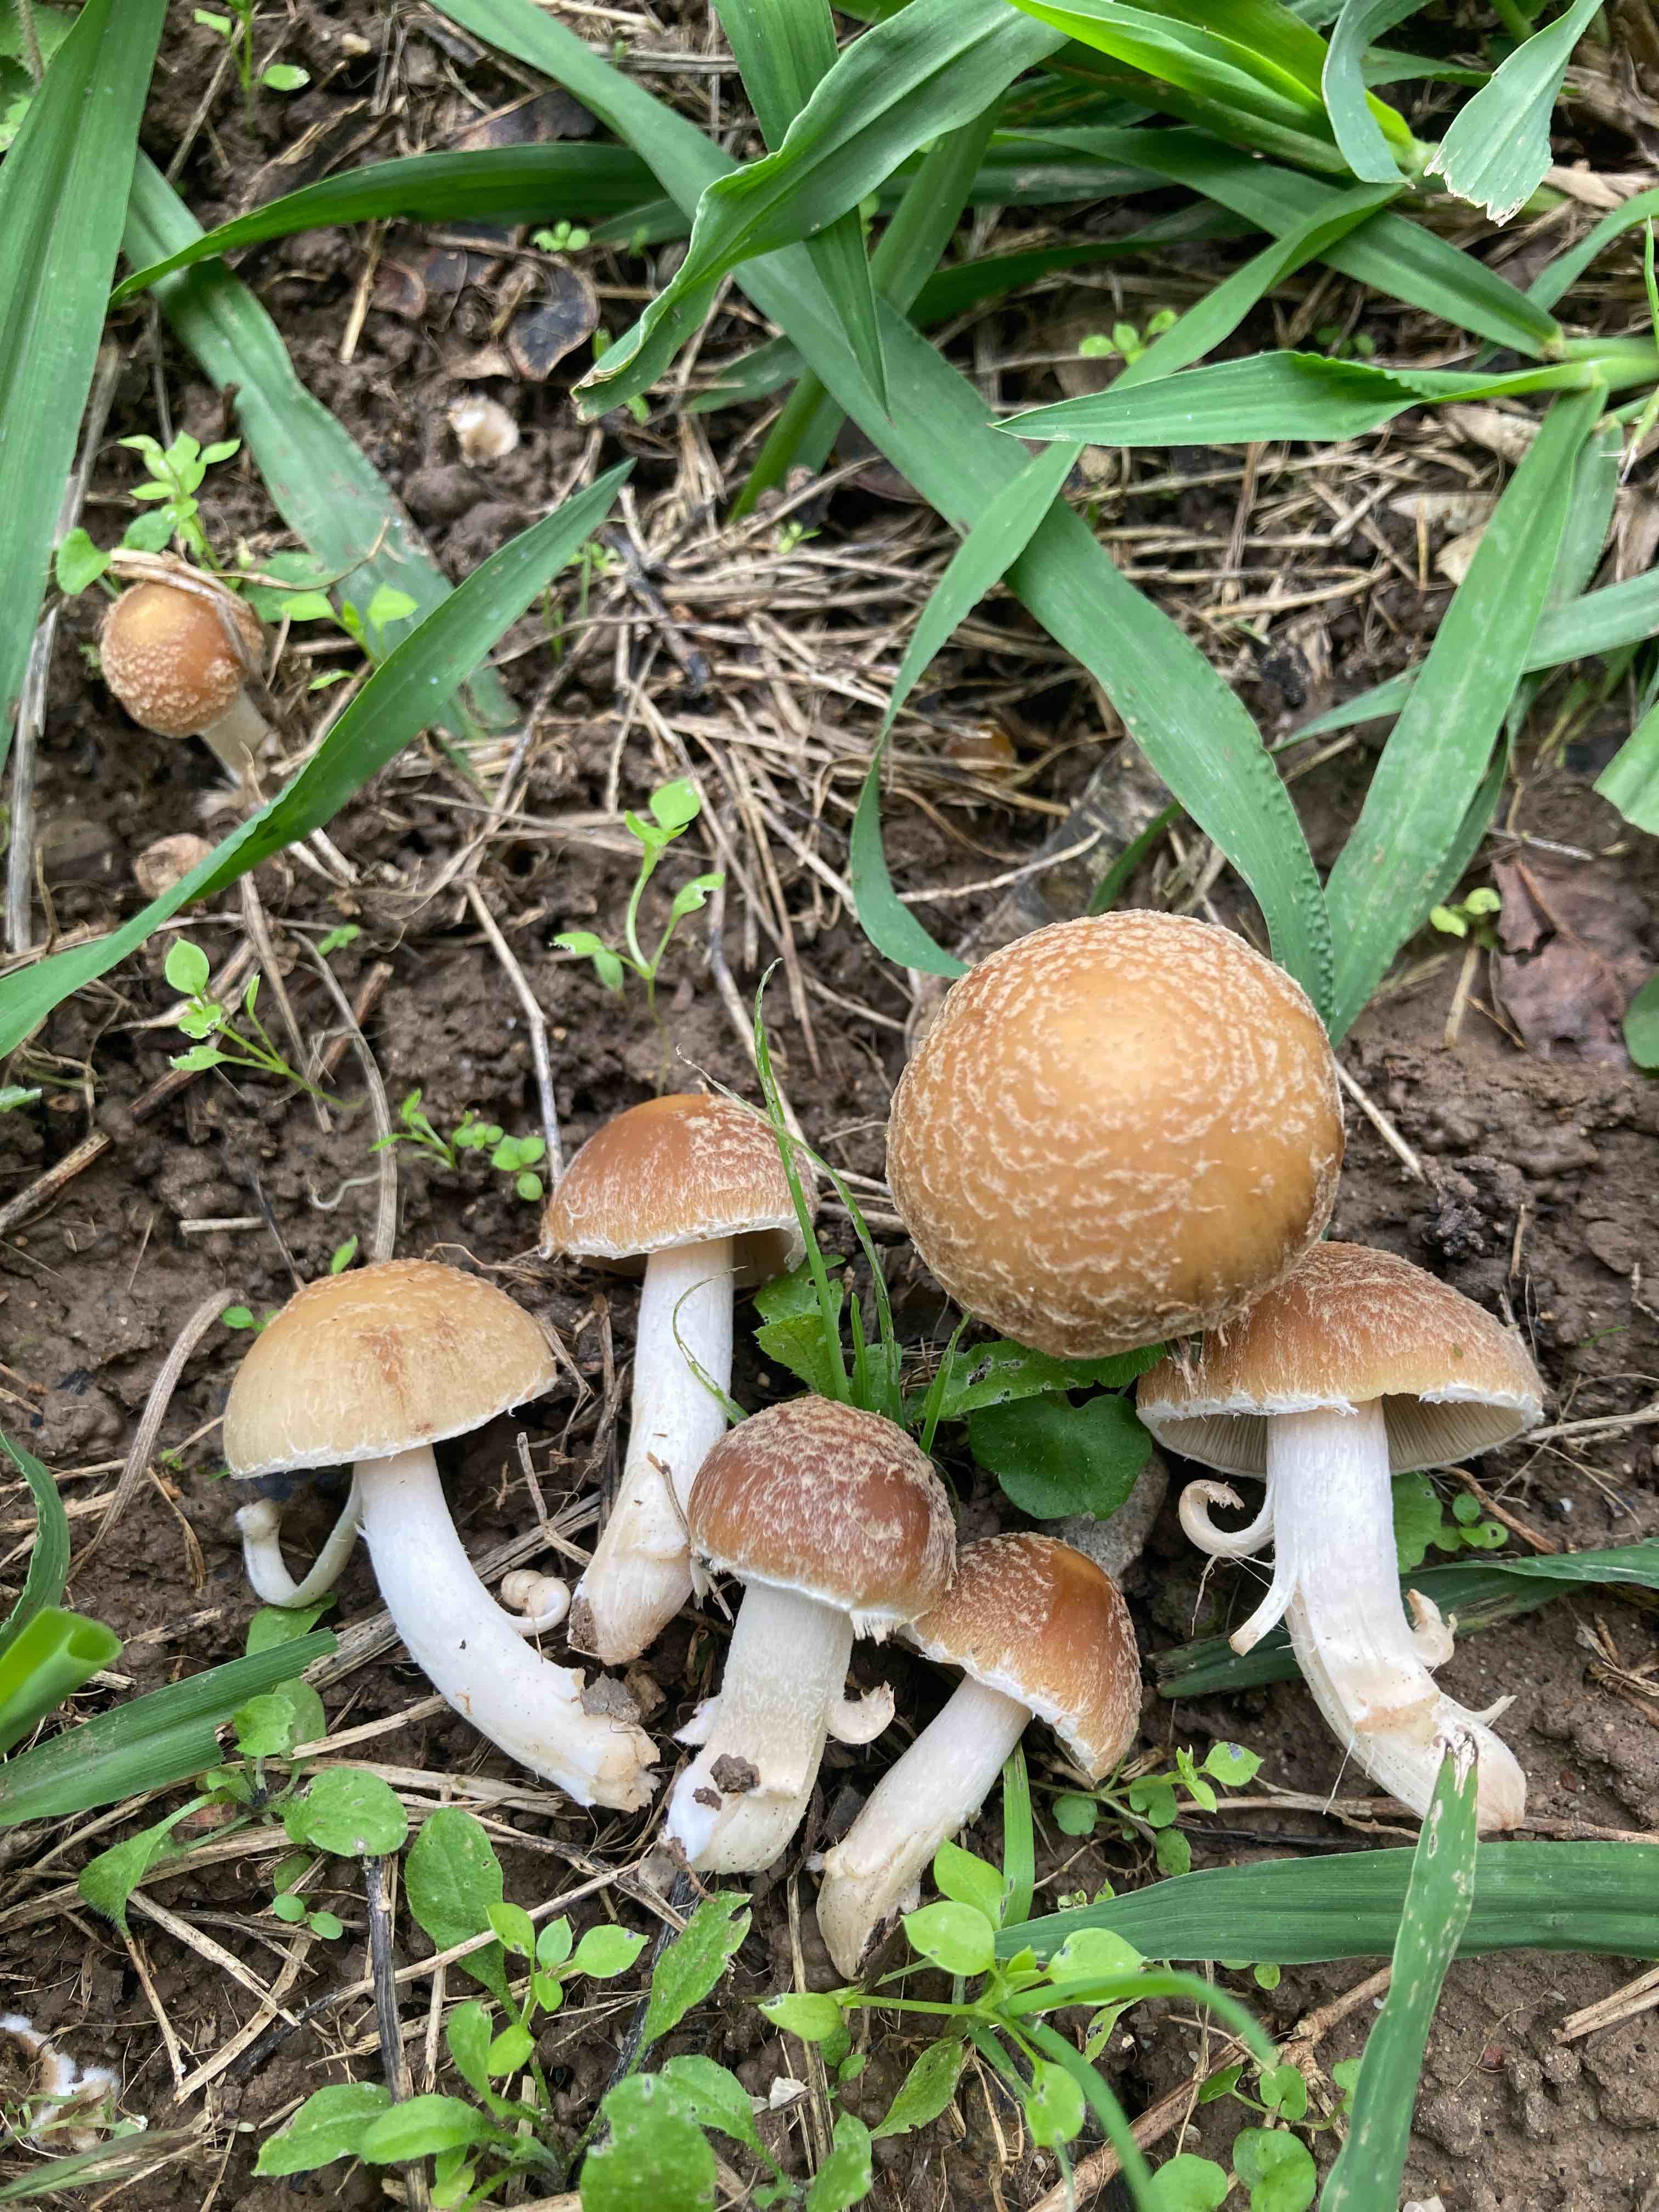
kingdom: Fungi
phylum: Basidiomycota
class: Agaricomycetes
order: Agaricales
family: Psathyrellaceae
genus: Candolleomyces
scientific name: Candolleomyces candolleanus
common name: Candolles mørkhat
